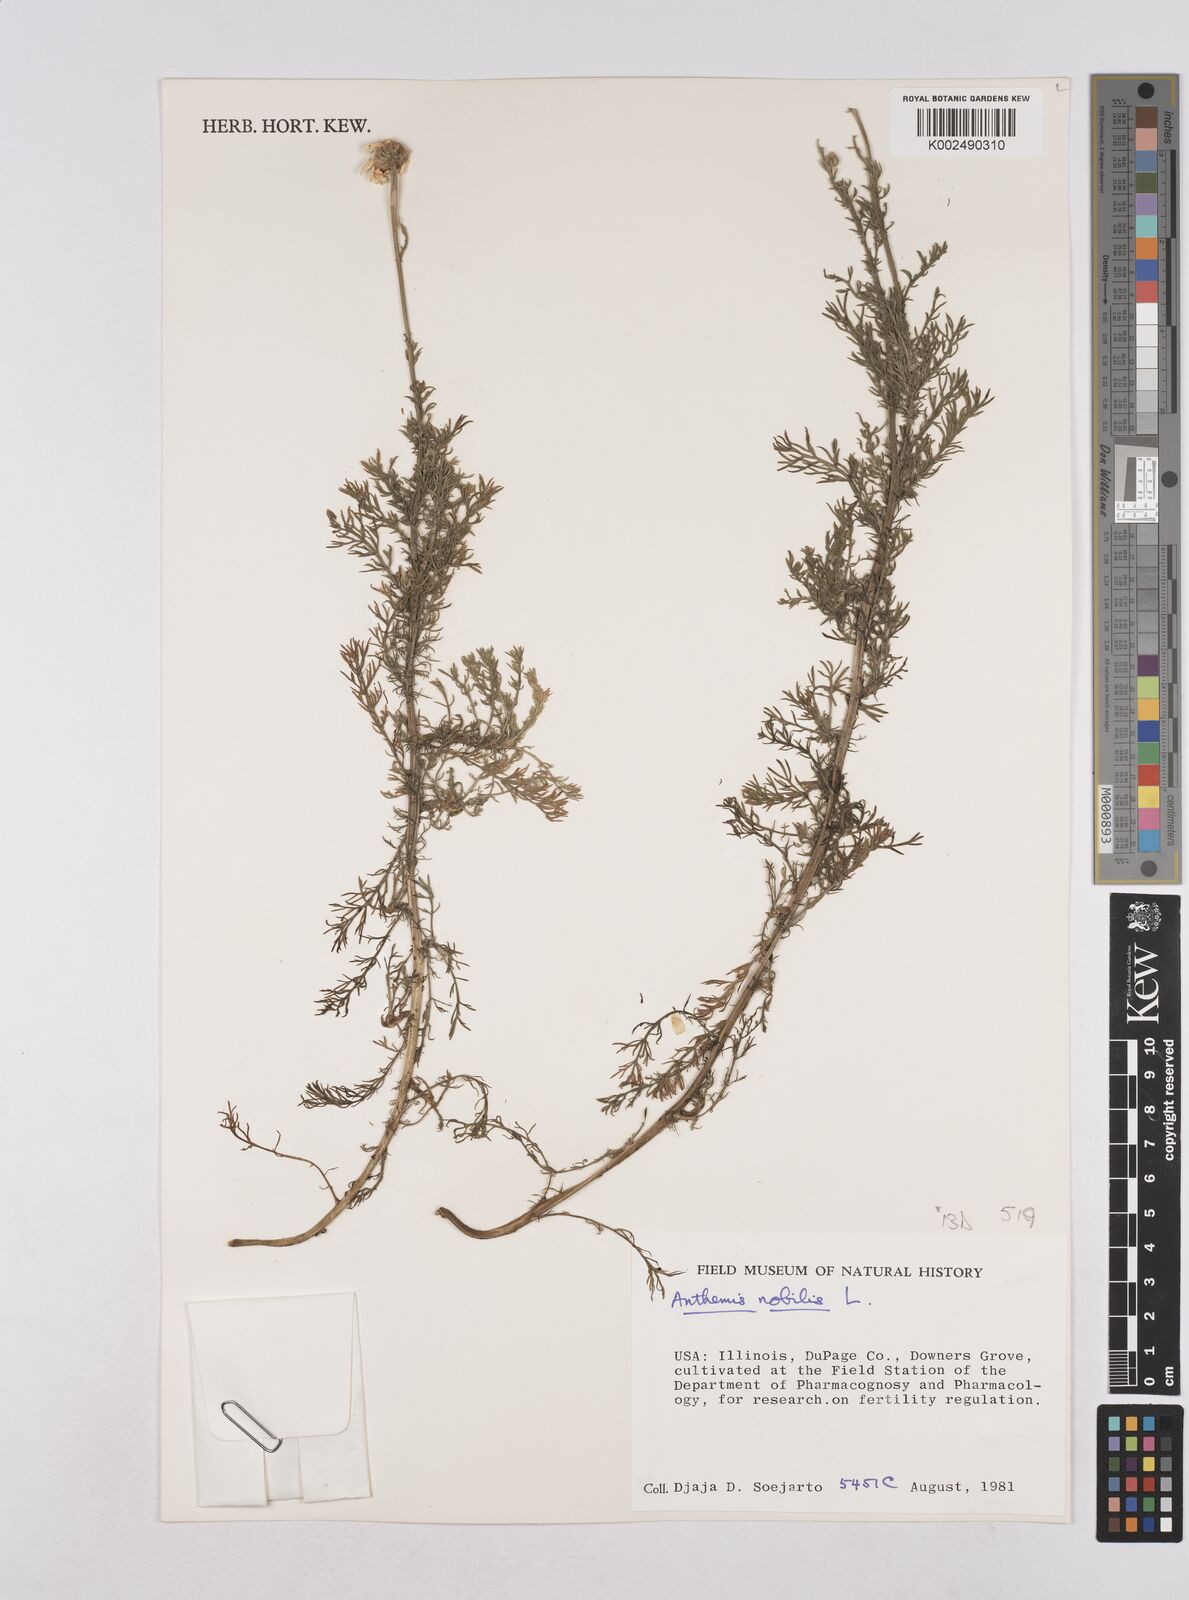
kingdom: Plantae
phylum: Tracheophyta
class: Magnoliopsida
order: Asterales
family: Asteraceae
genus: Chamaemelum
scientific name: Chamaemelum nobile
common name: Roman chamomile
